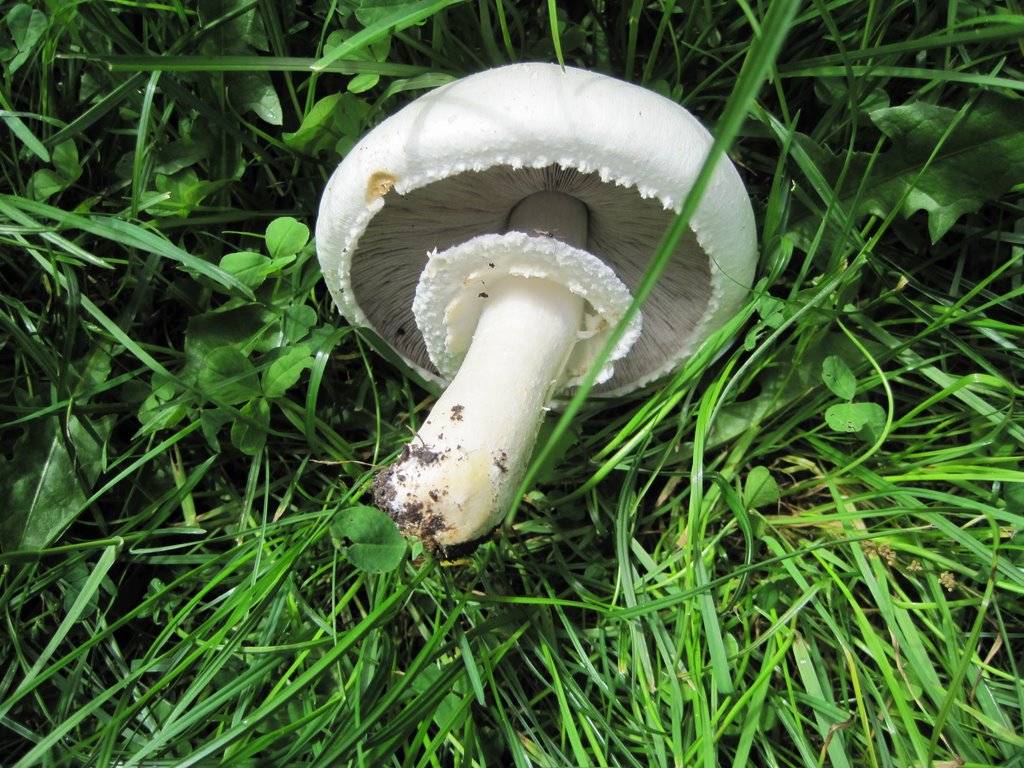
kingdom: Fungi
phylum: Basidiomycota
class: Agaricomycetes
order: Agaricales
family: Agaricaceae
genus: Agaricus
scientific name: Agaricus xanthodermus
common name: karbol-champignon
